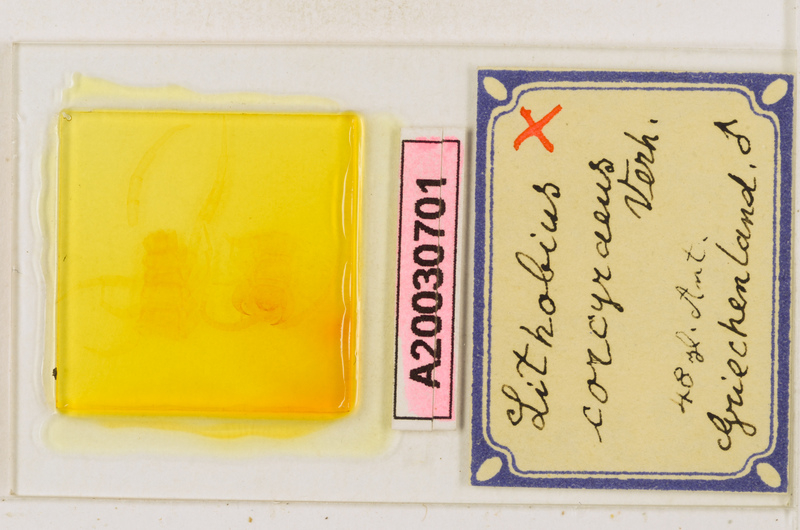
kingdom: Animalia
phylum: Arthropoda
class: Chilopoda
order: Lithobiomorpha
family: Lithobiidae
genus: Lithobius
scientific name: Lithobius variegatus
